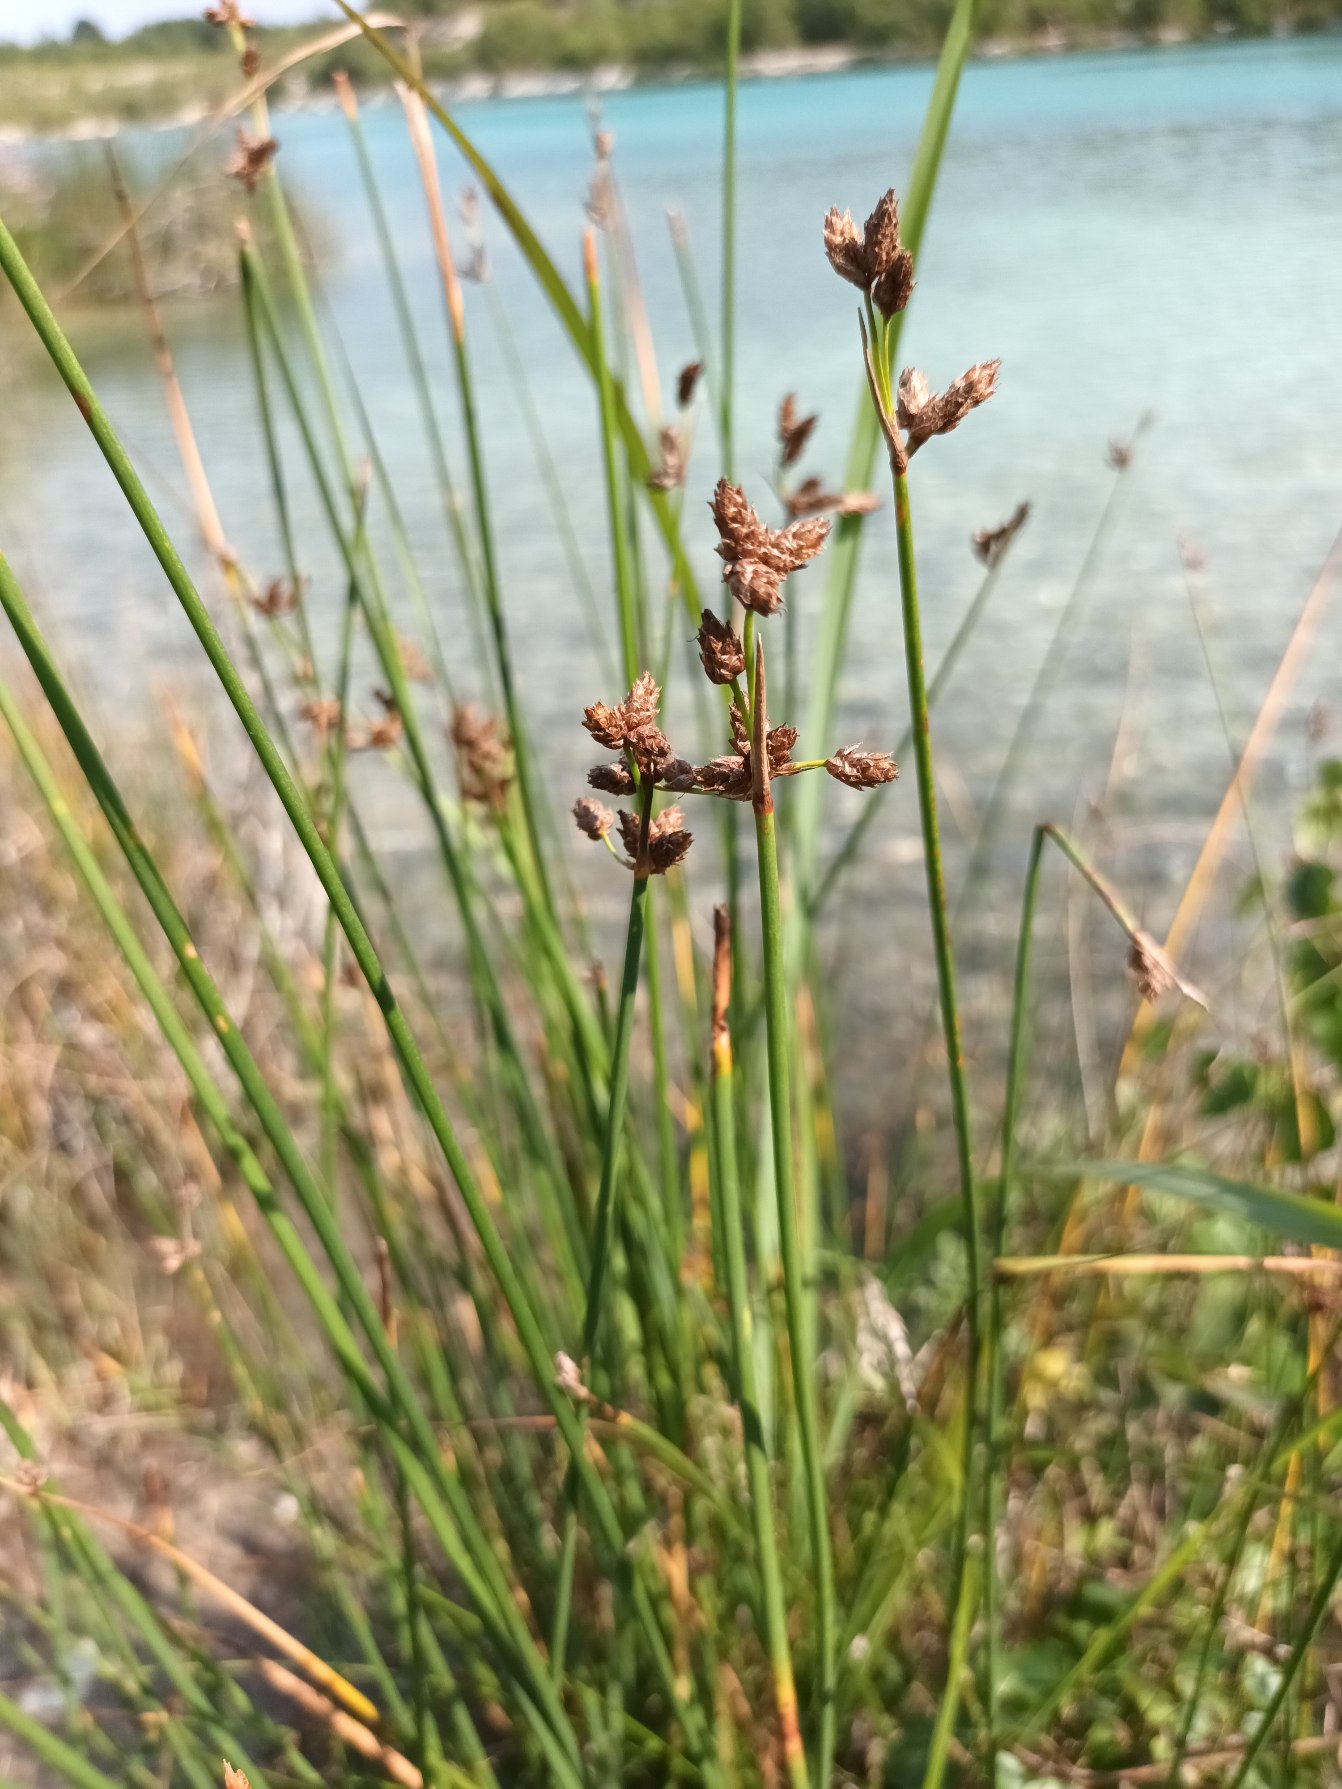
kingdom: Plantae
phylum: Tracheophyta
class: Liliopsida
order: Poales
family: Cyperaceae
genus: Schoenoplectus
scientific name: Schoenoplectus lacustris
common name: Sø-kogleaks
